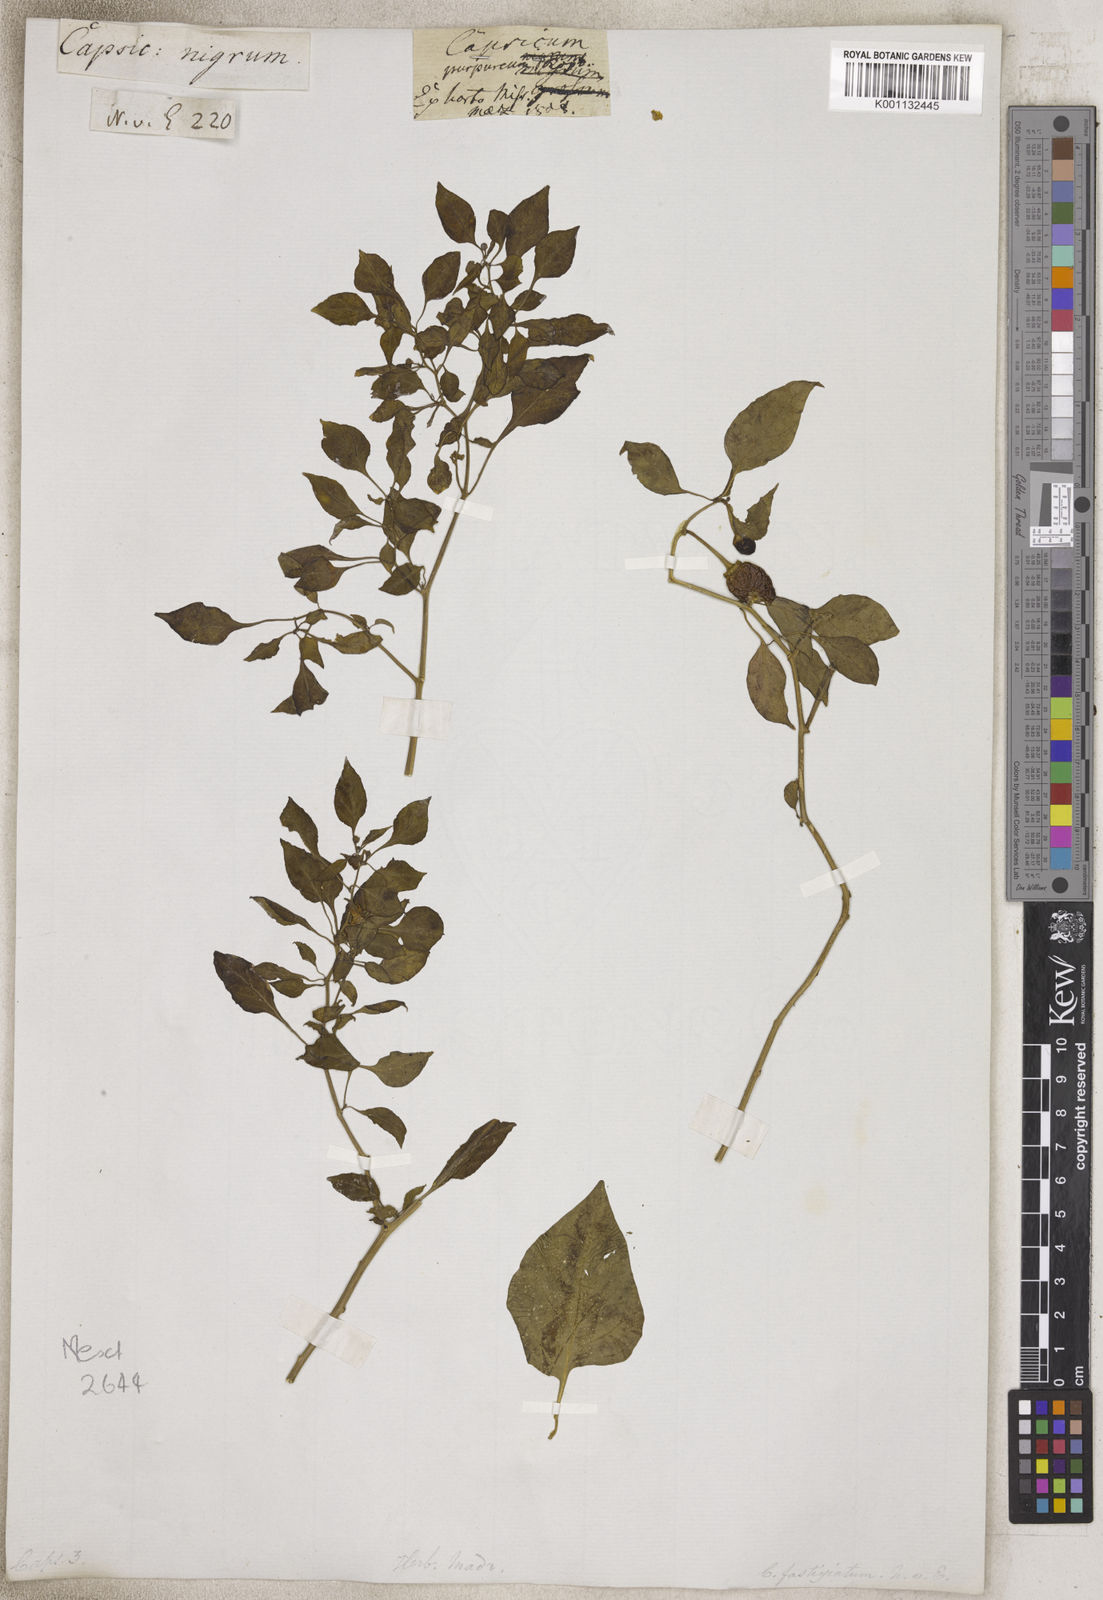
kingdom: Plantae
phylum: Tracheophyta
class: Magnoliopsida
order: Solanales
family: Solanaceae
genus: Capsicum
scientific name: Capsicum
